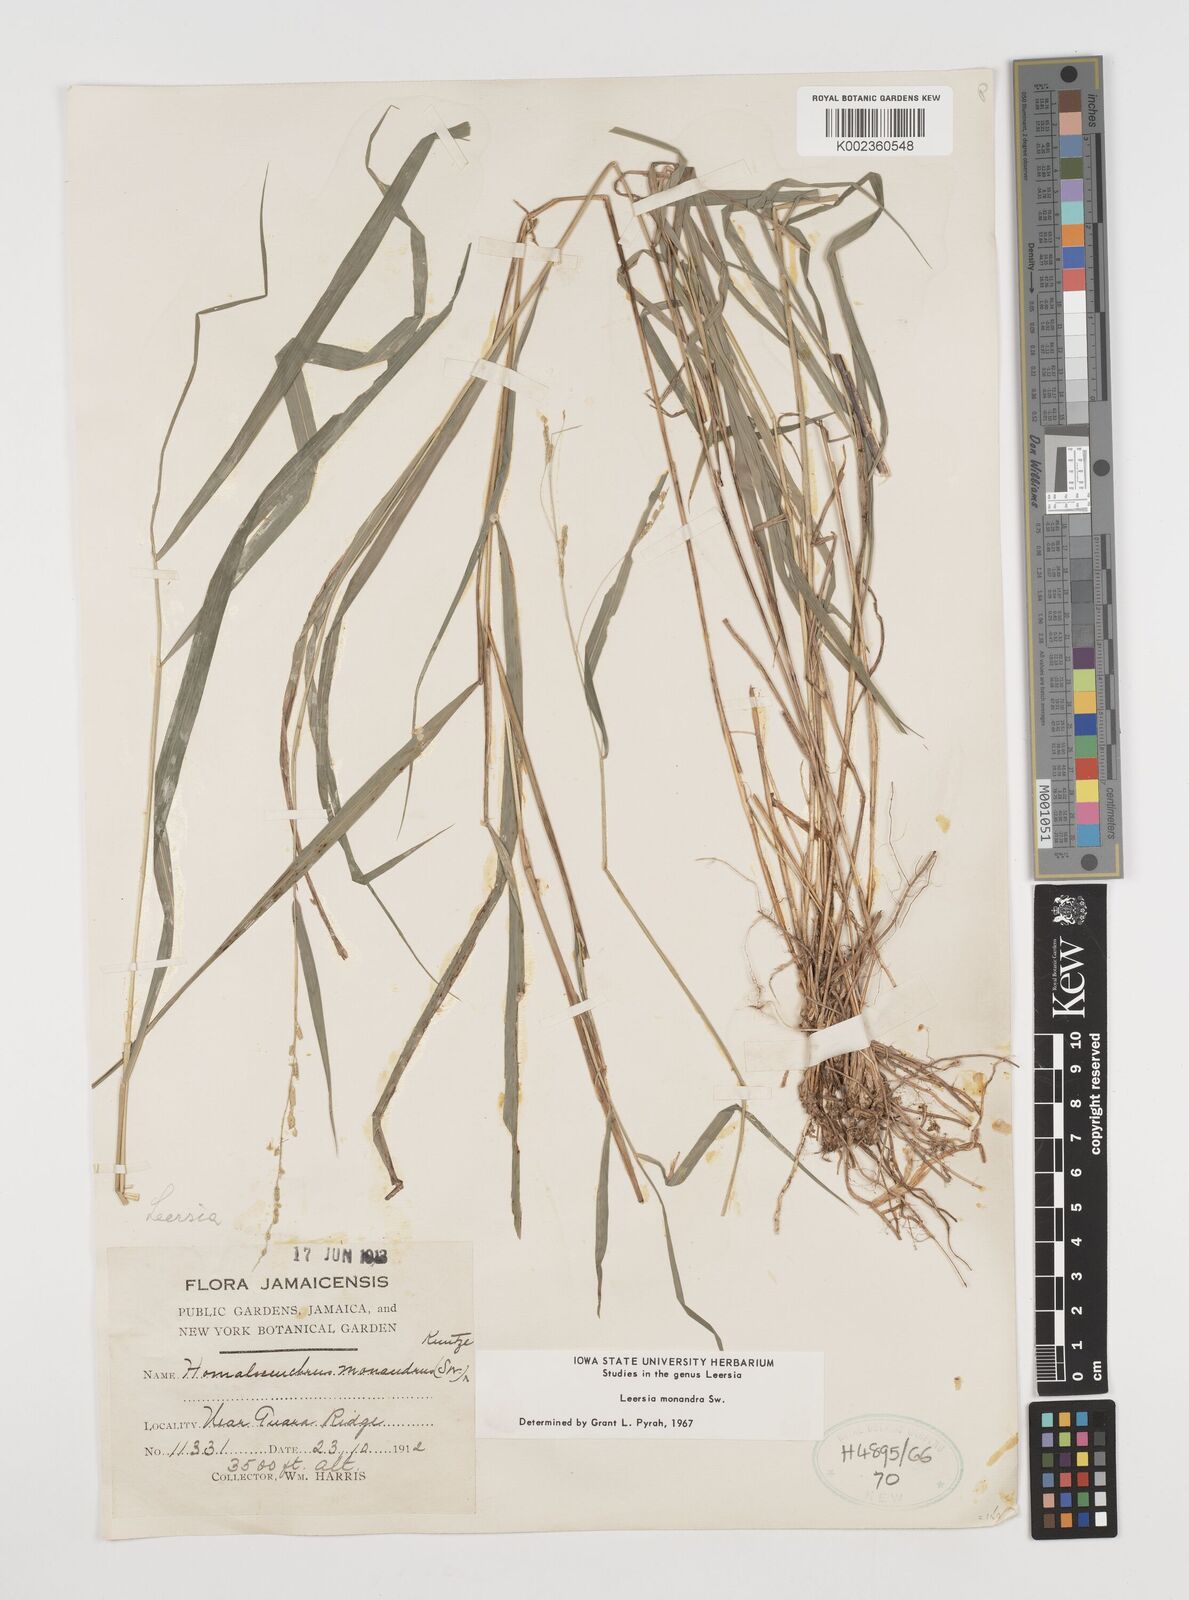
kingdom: Plantae
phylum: Tracheophyta
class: Liliopsida
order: Poales
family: Poaceae
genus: Leersia
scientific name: Leersia monandra
